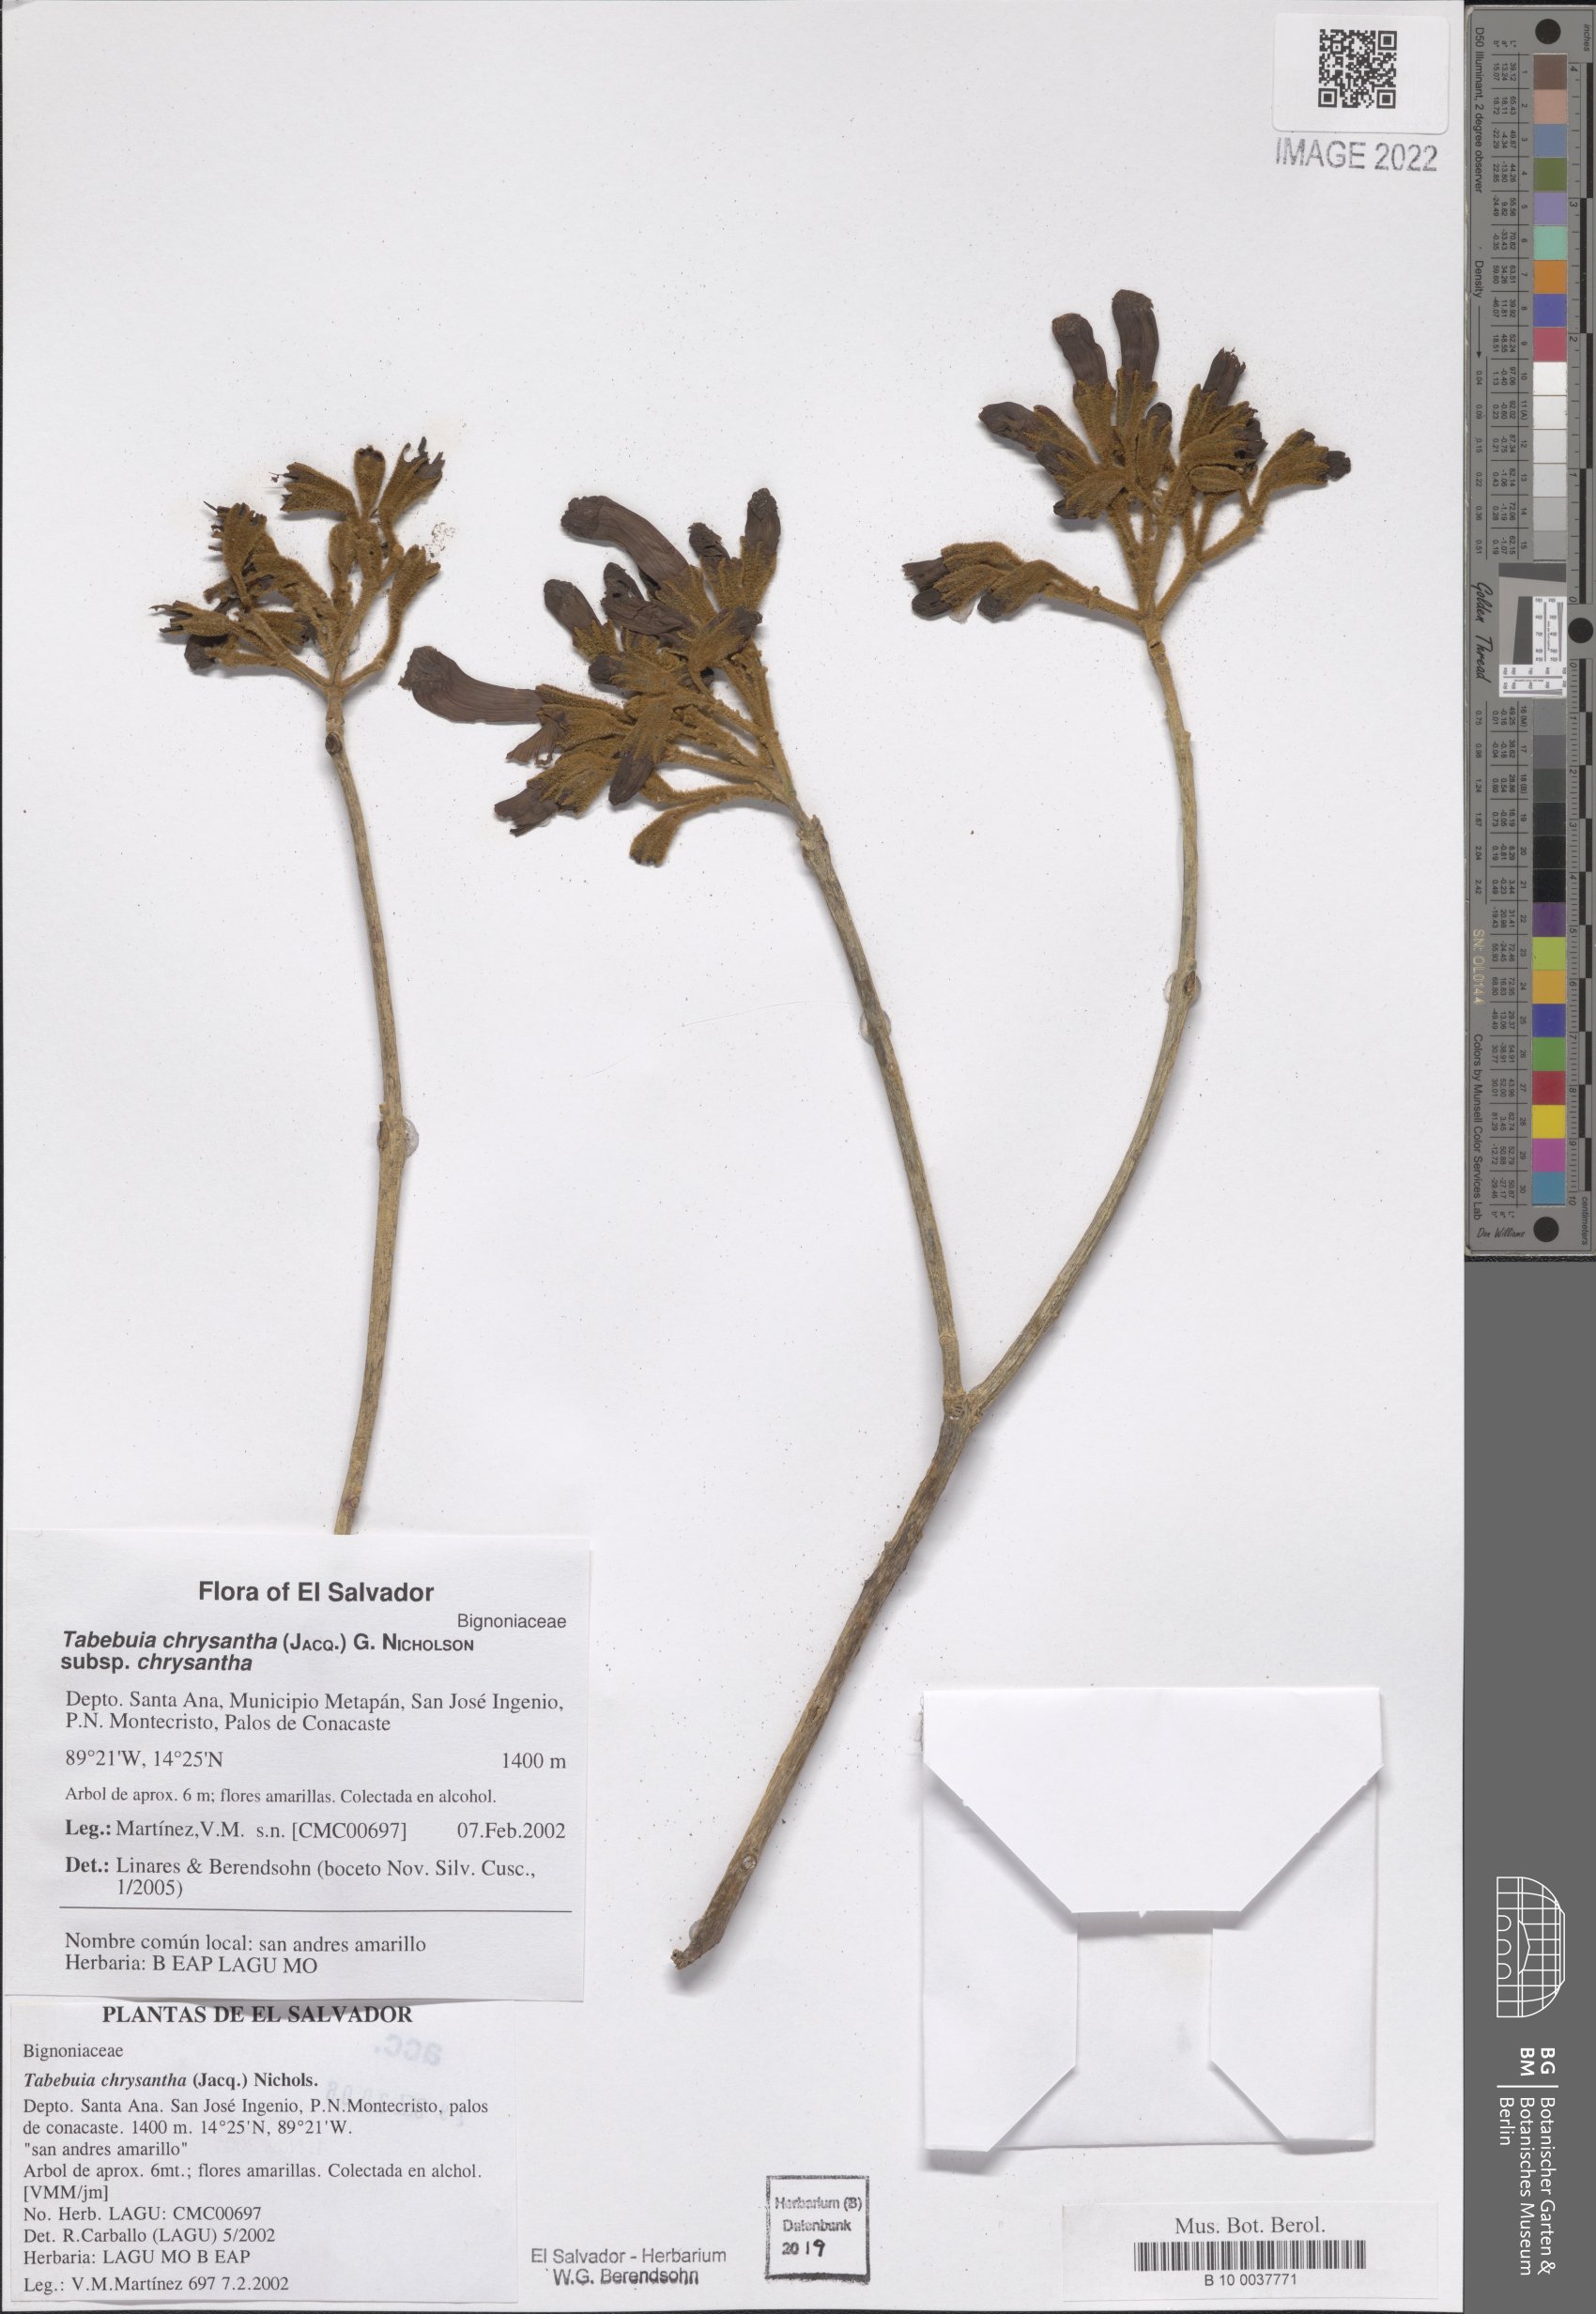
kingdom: Plantae
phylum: Tracheophyta
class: Magnoliopsida
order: Lamiales
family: Bignoniaceae
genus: Handroanthus
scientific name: Handroanthus chrysanthus
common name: Trumpet trees
